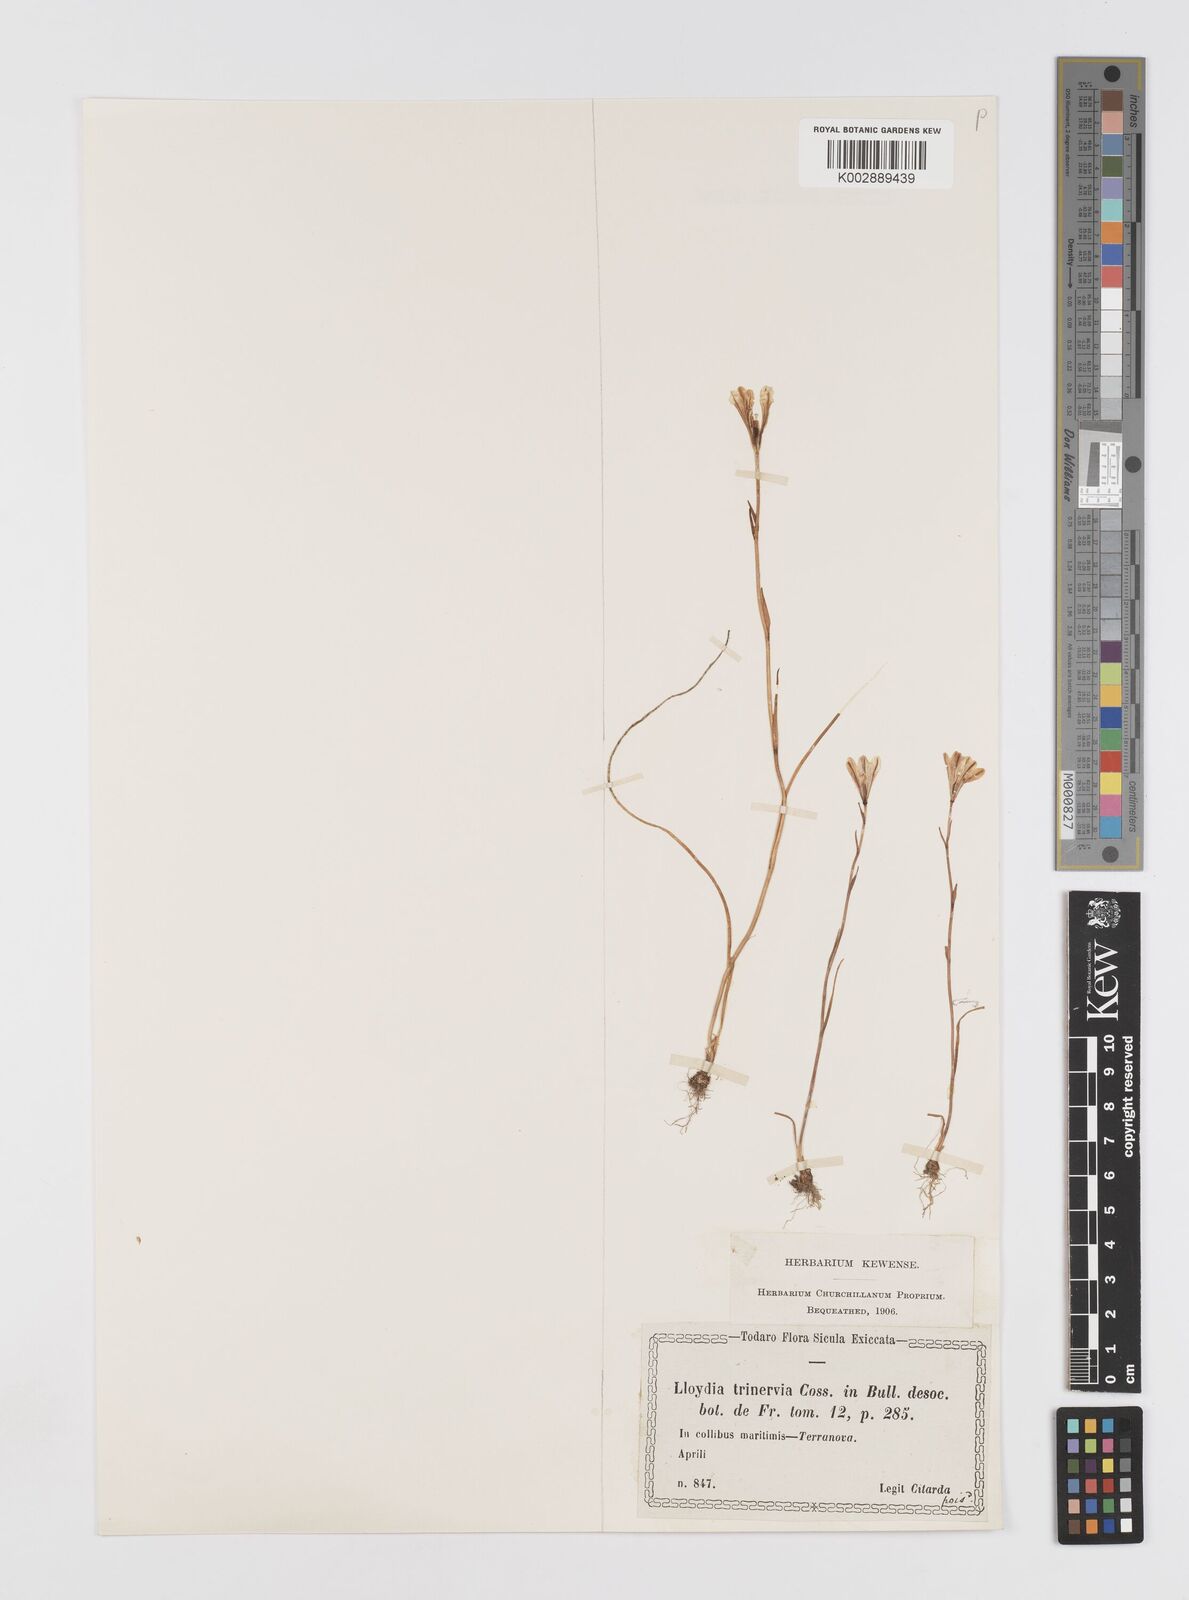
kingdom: Plantae
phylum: Tracheophyta
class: Liliopsida
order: Liliales
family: Liliaceae
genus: Gagea
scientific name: Gagea
